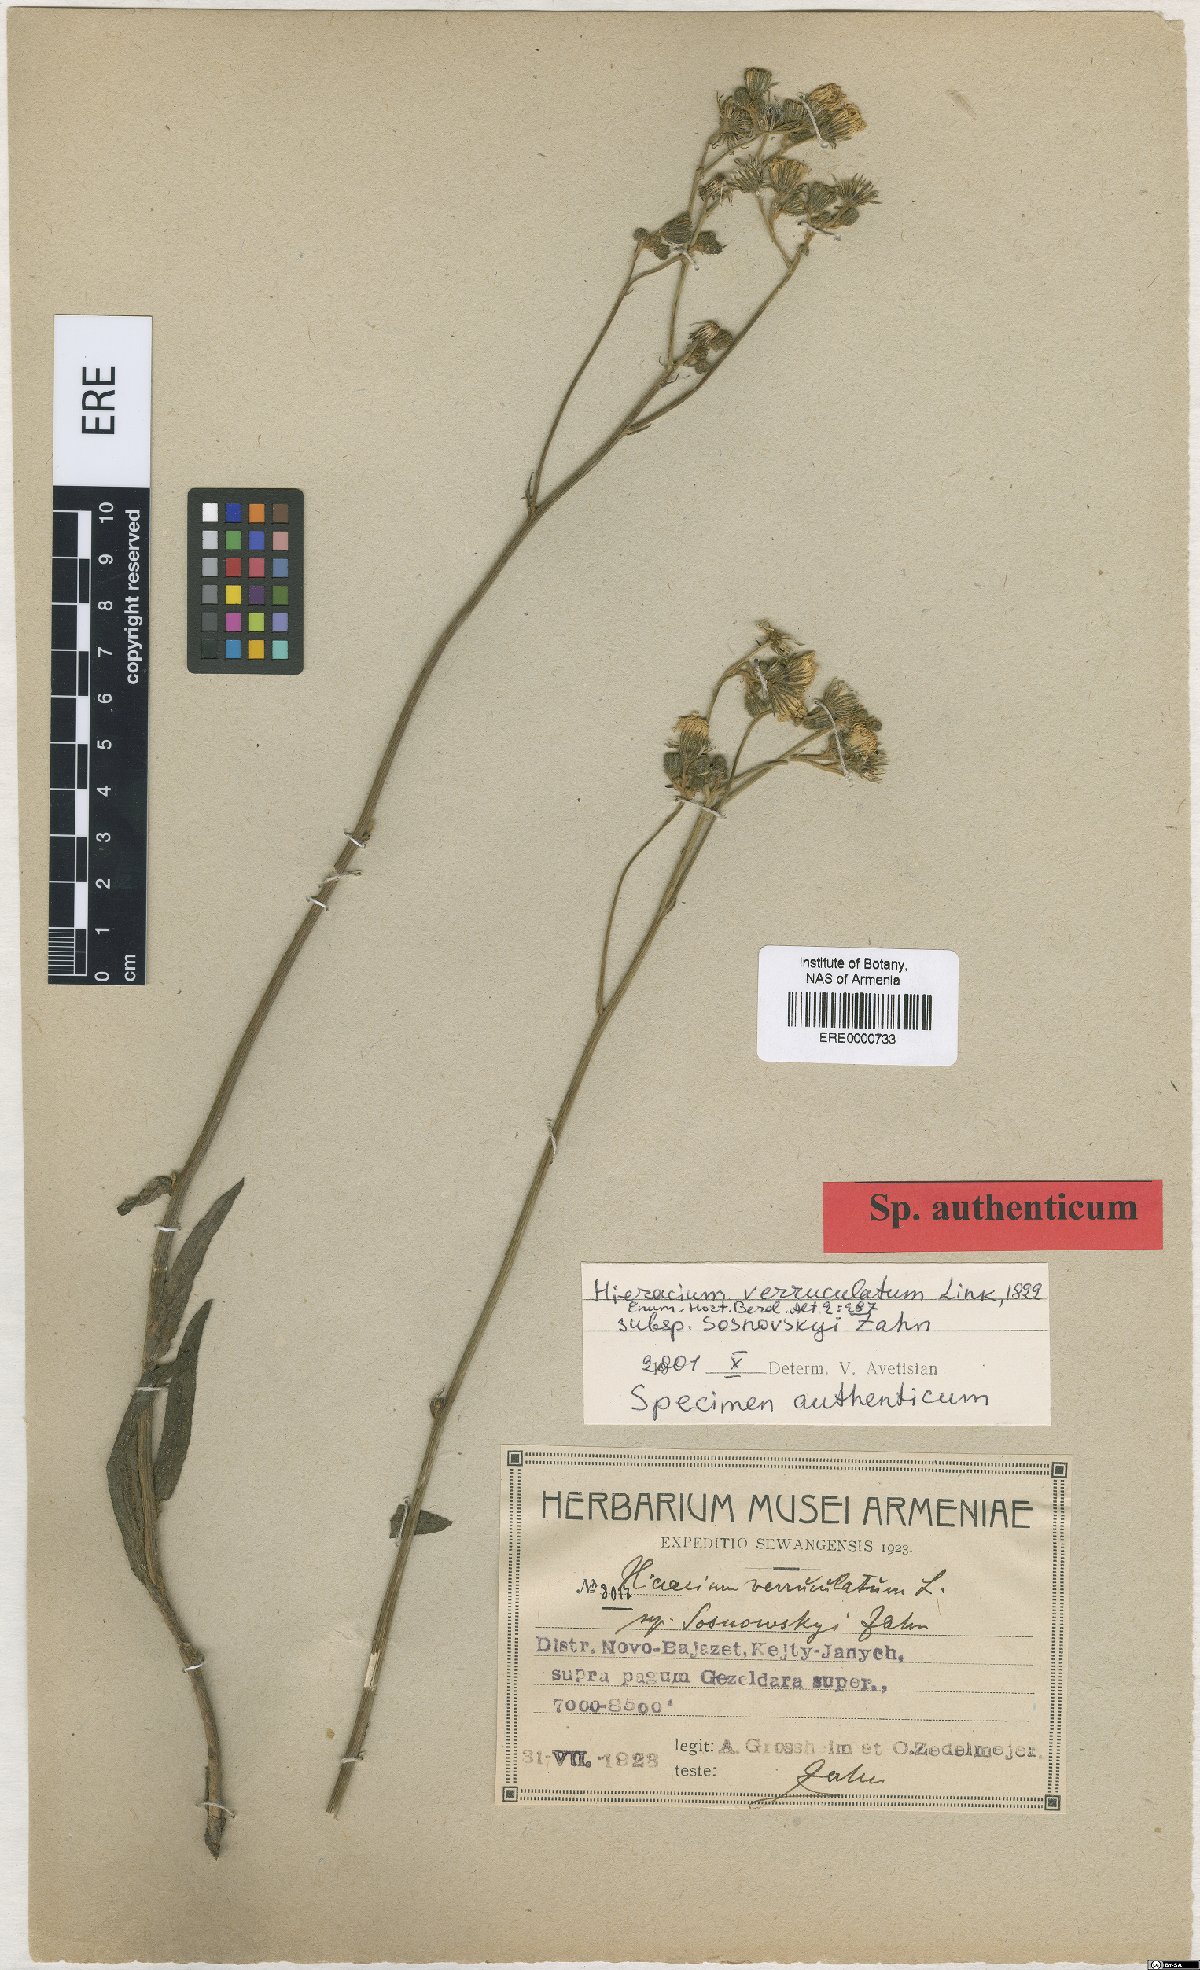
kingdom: Plantae
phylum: Tracheophyta
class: Magnoliopsida
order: Asterales
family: Asteraceae
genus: Pilosella
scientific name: Pilosella verruculata
